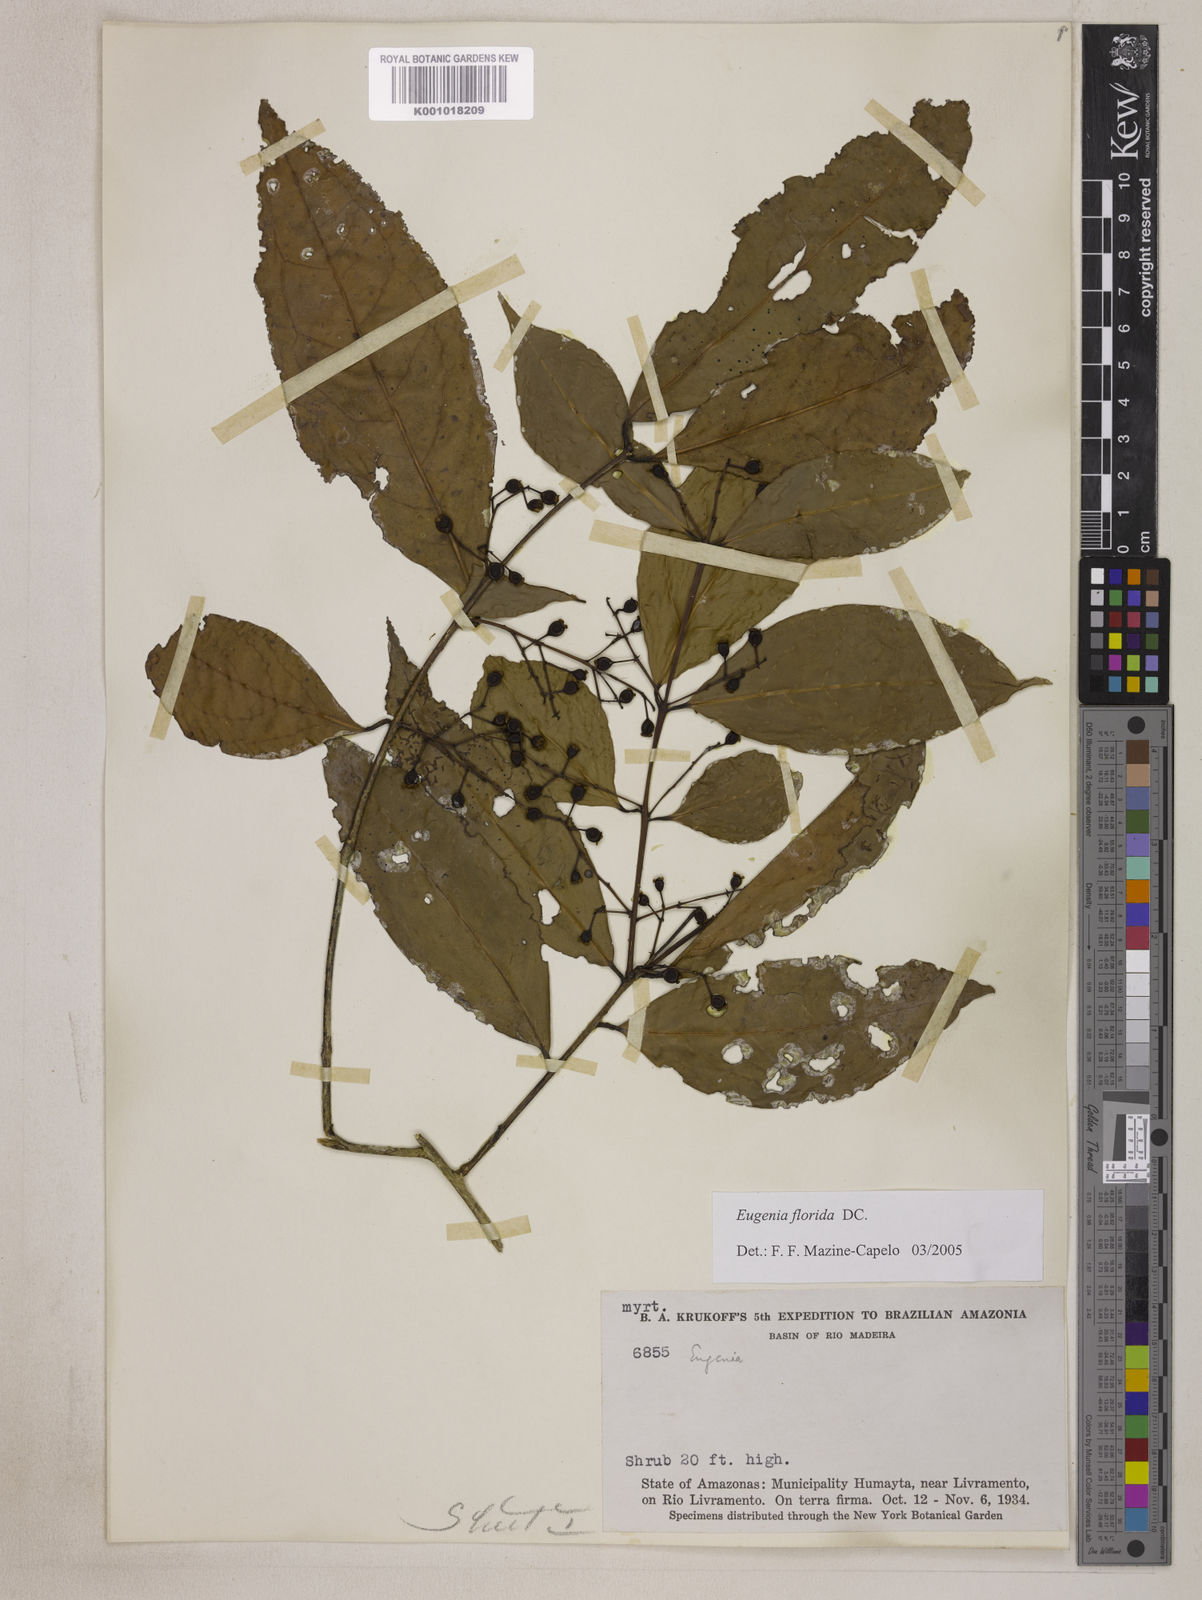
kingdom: Plantae
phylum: Tracheophyta
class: Magnoliopsida
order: Myrtales
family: Myrtaceae
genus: Eugenia
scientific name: Eugenia florida
